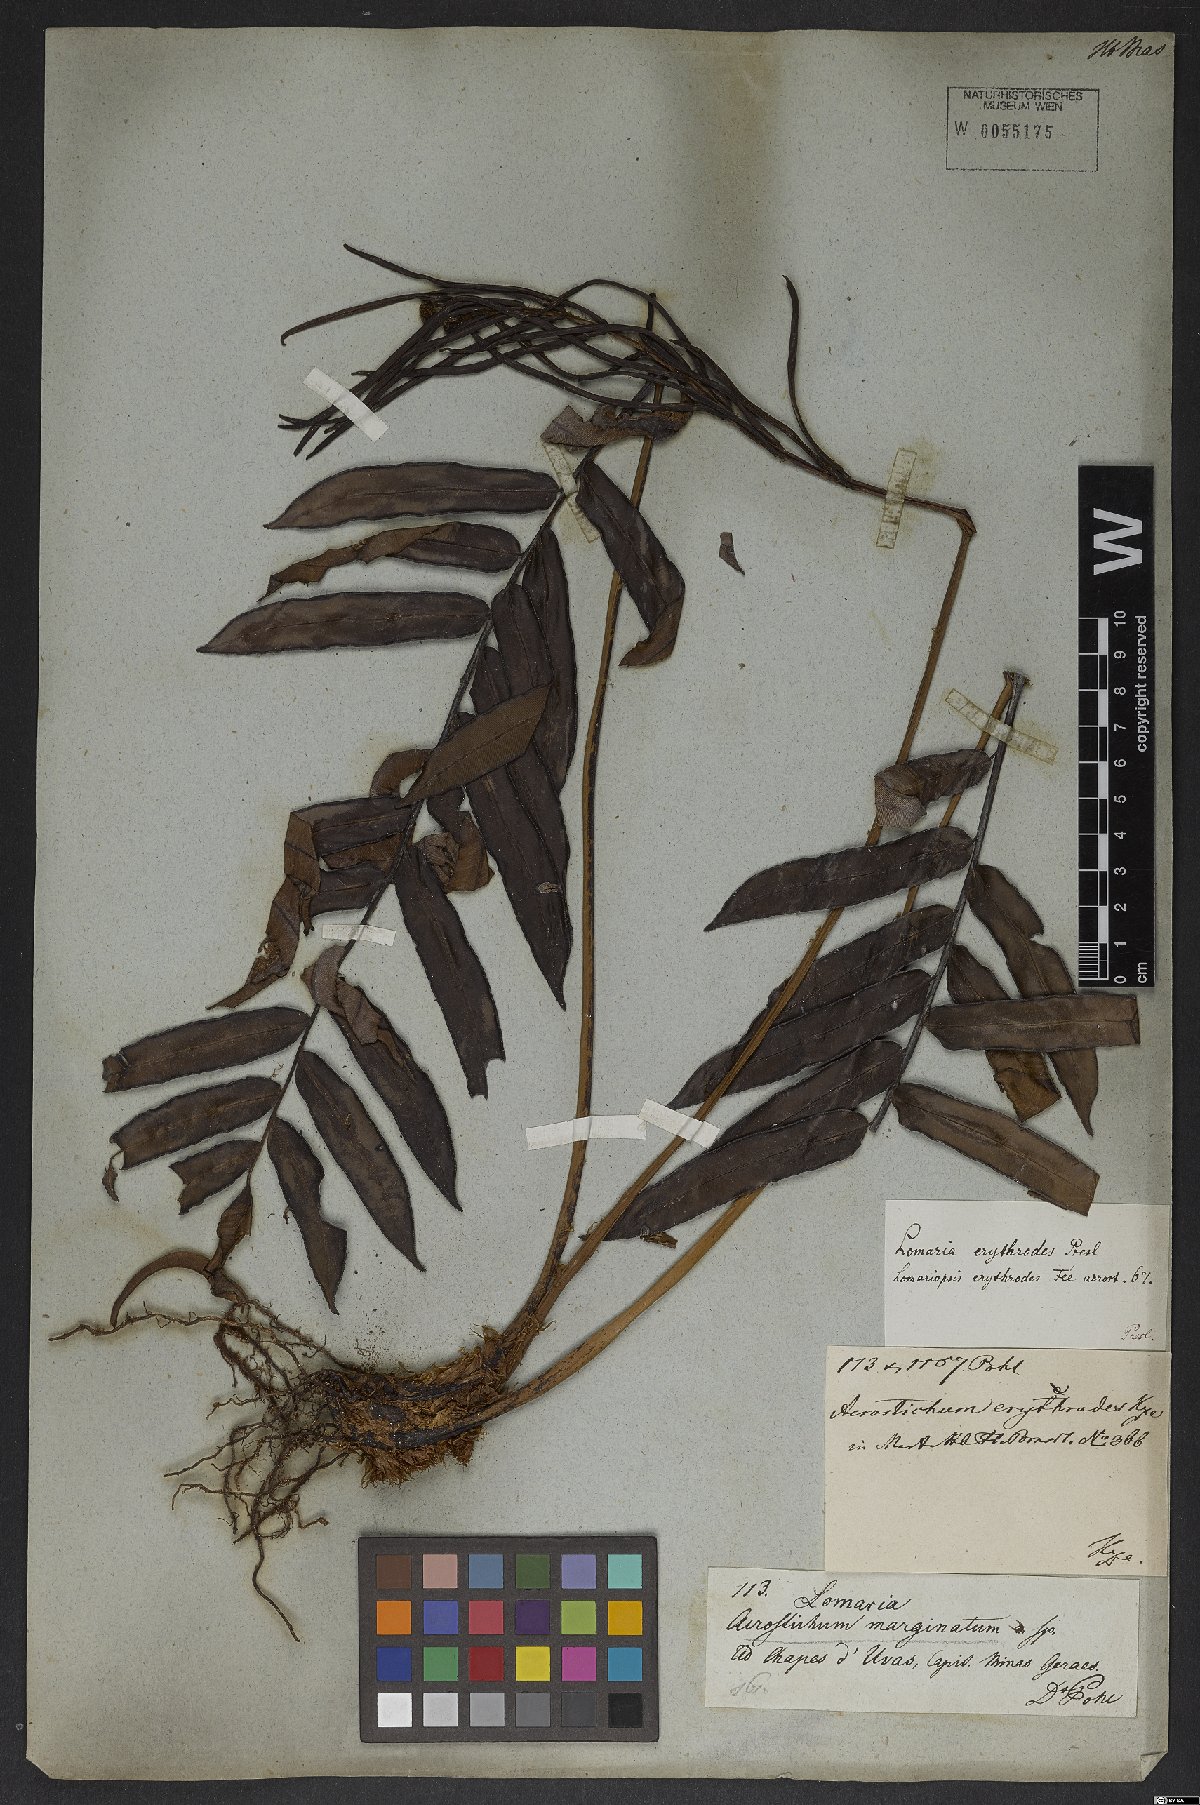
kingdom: Plantae
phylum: Tracheophyta
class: Polypodiopsida
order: Polypodiales
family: Blechnaceae
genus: Blechnum
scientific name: Blechnum
